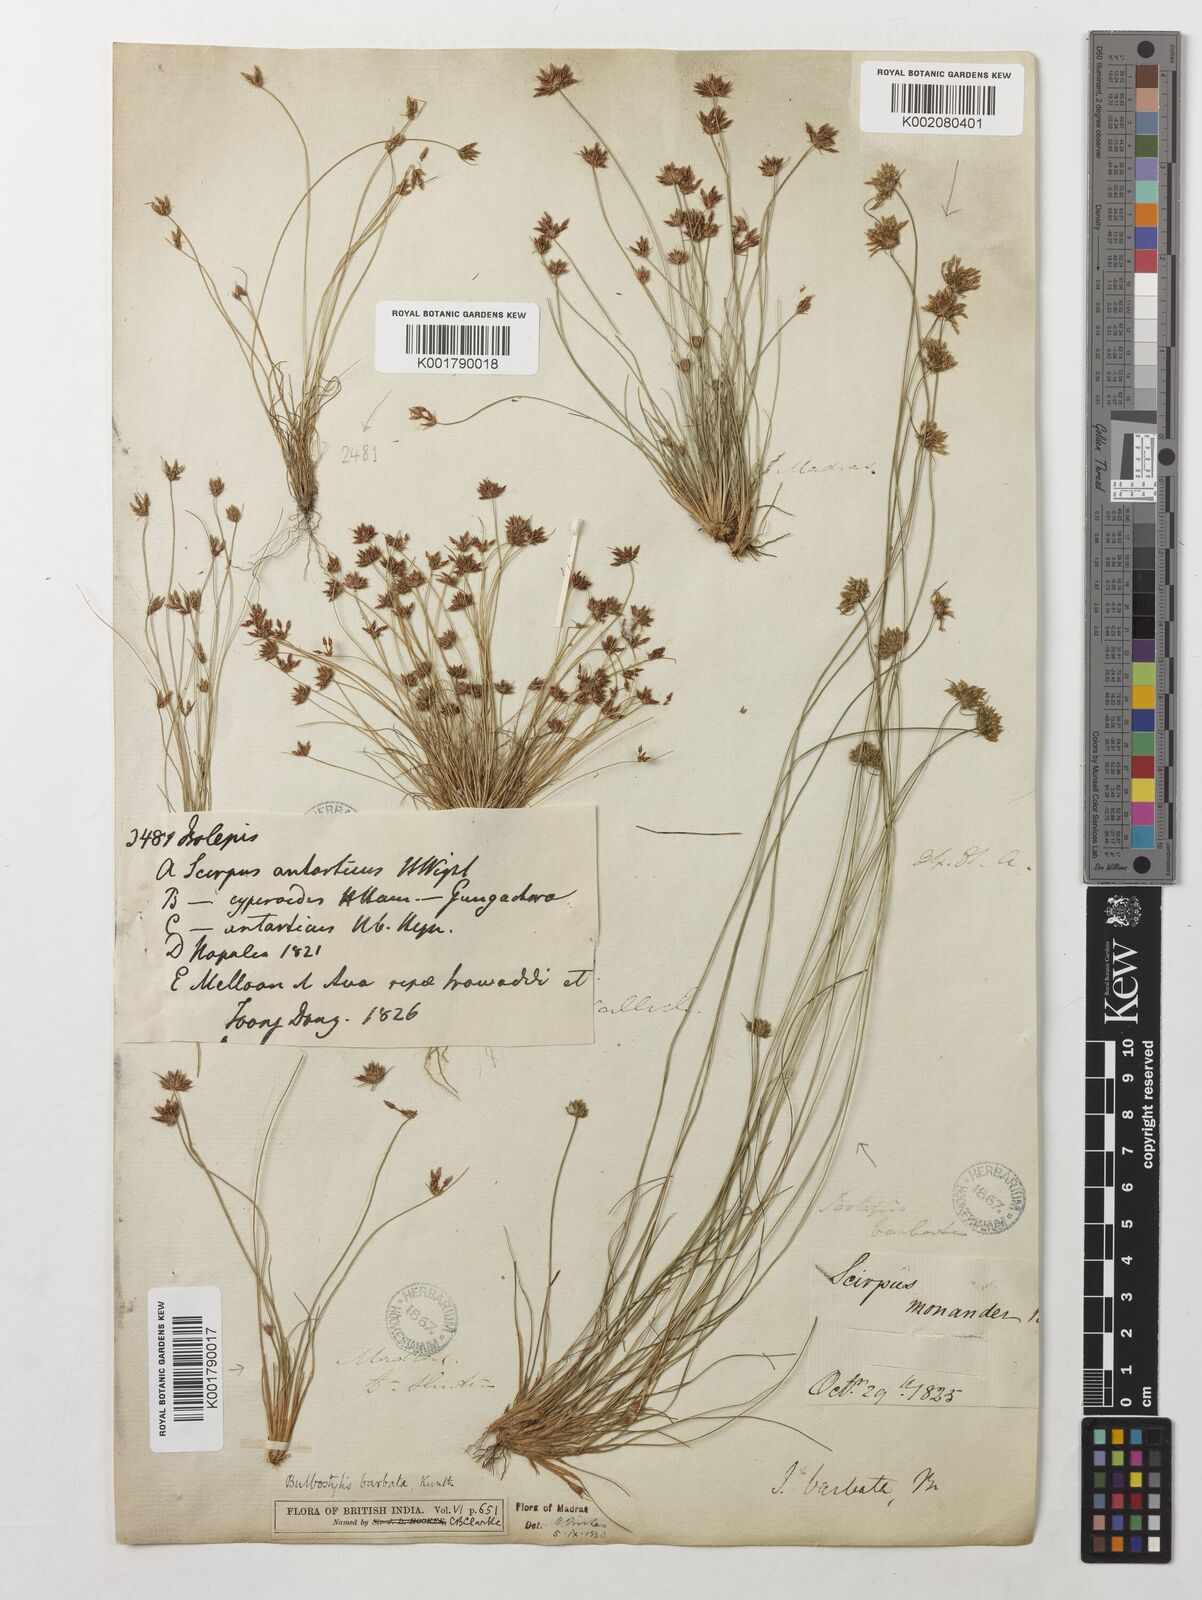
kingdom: Plantae
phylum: Tracheophyta
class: Liliopsida
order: Poales
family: Cyperaceae
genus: Bulbostylis
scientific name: Bulbostylis barbata
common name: Watergrass
